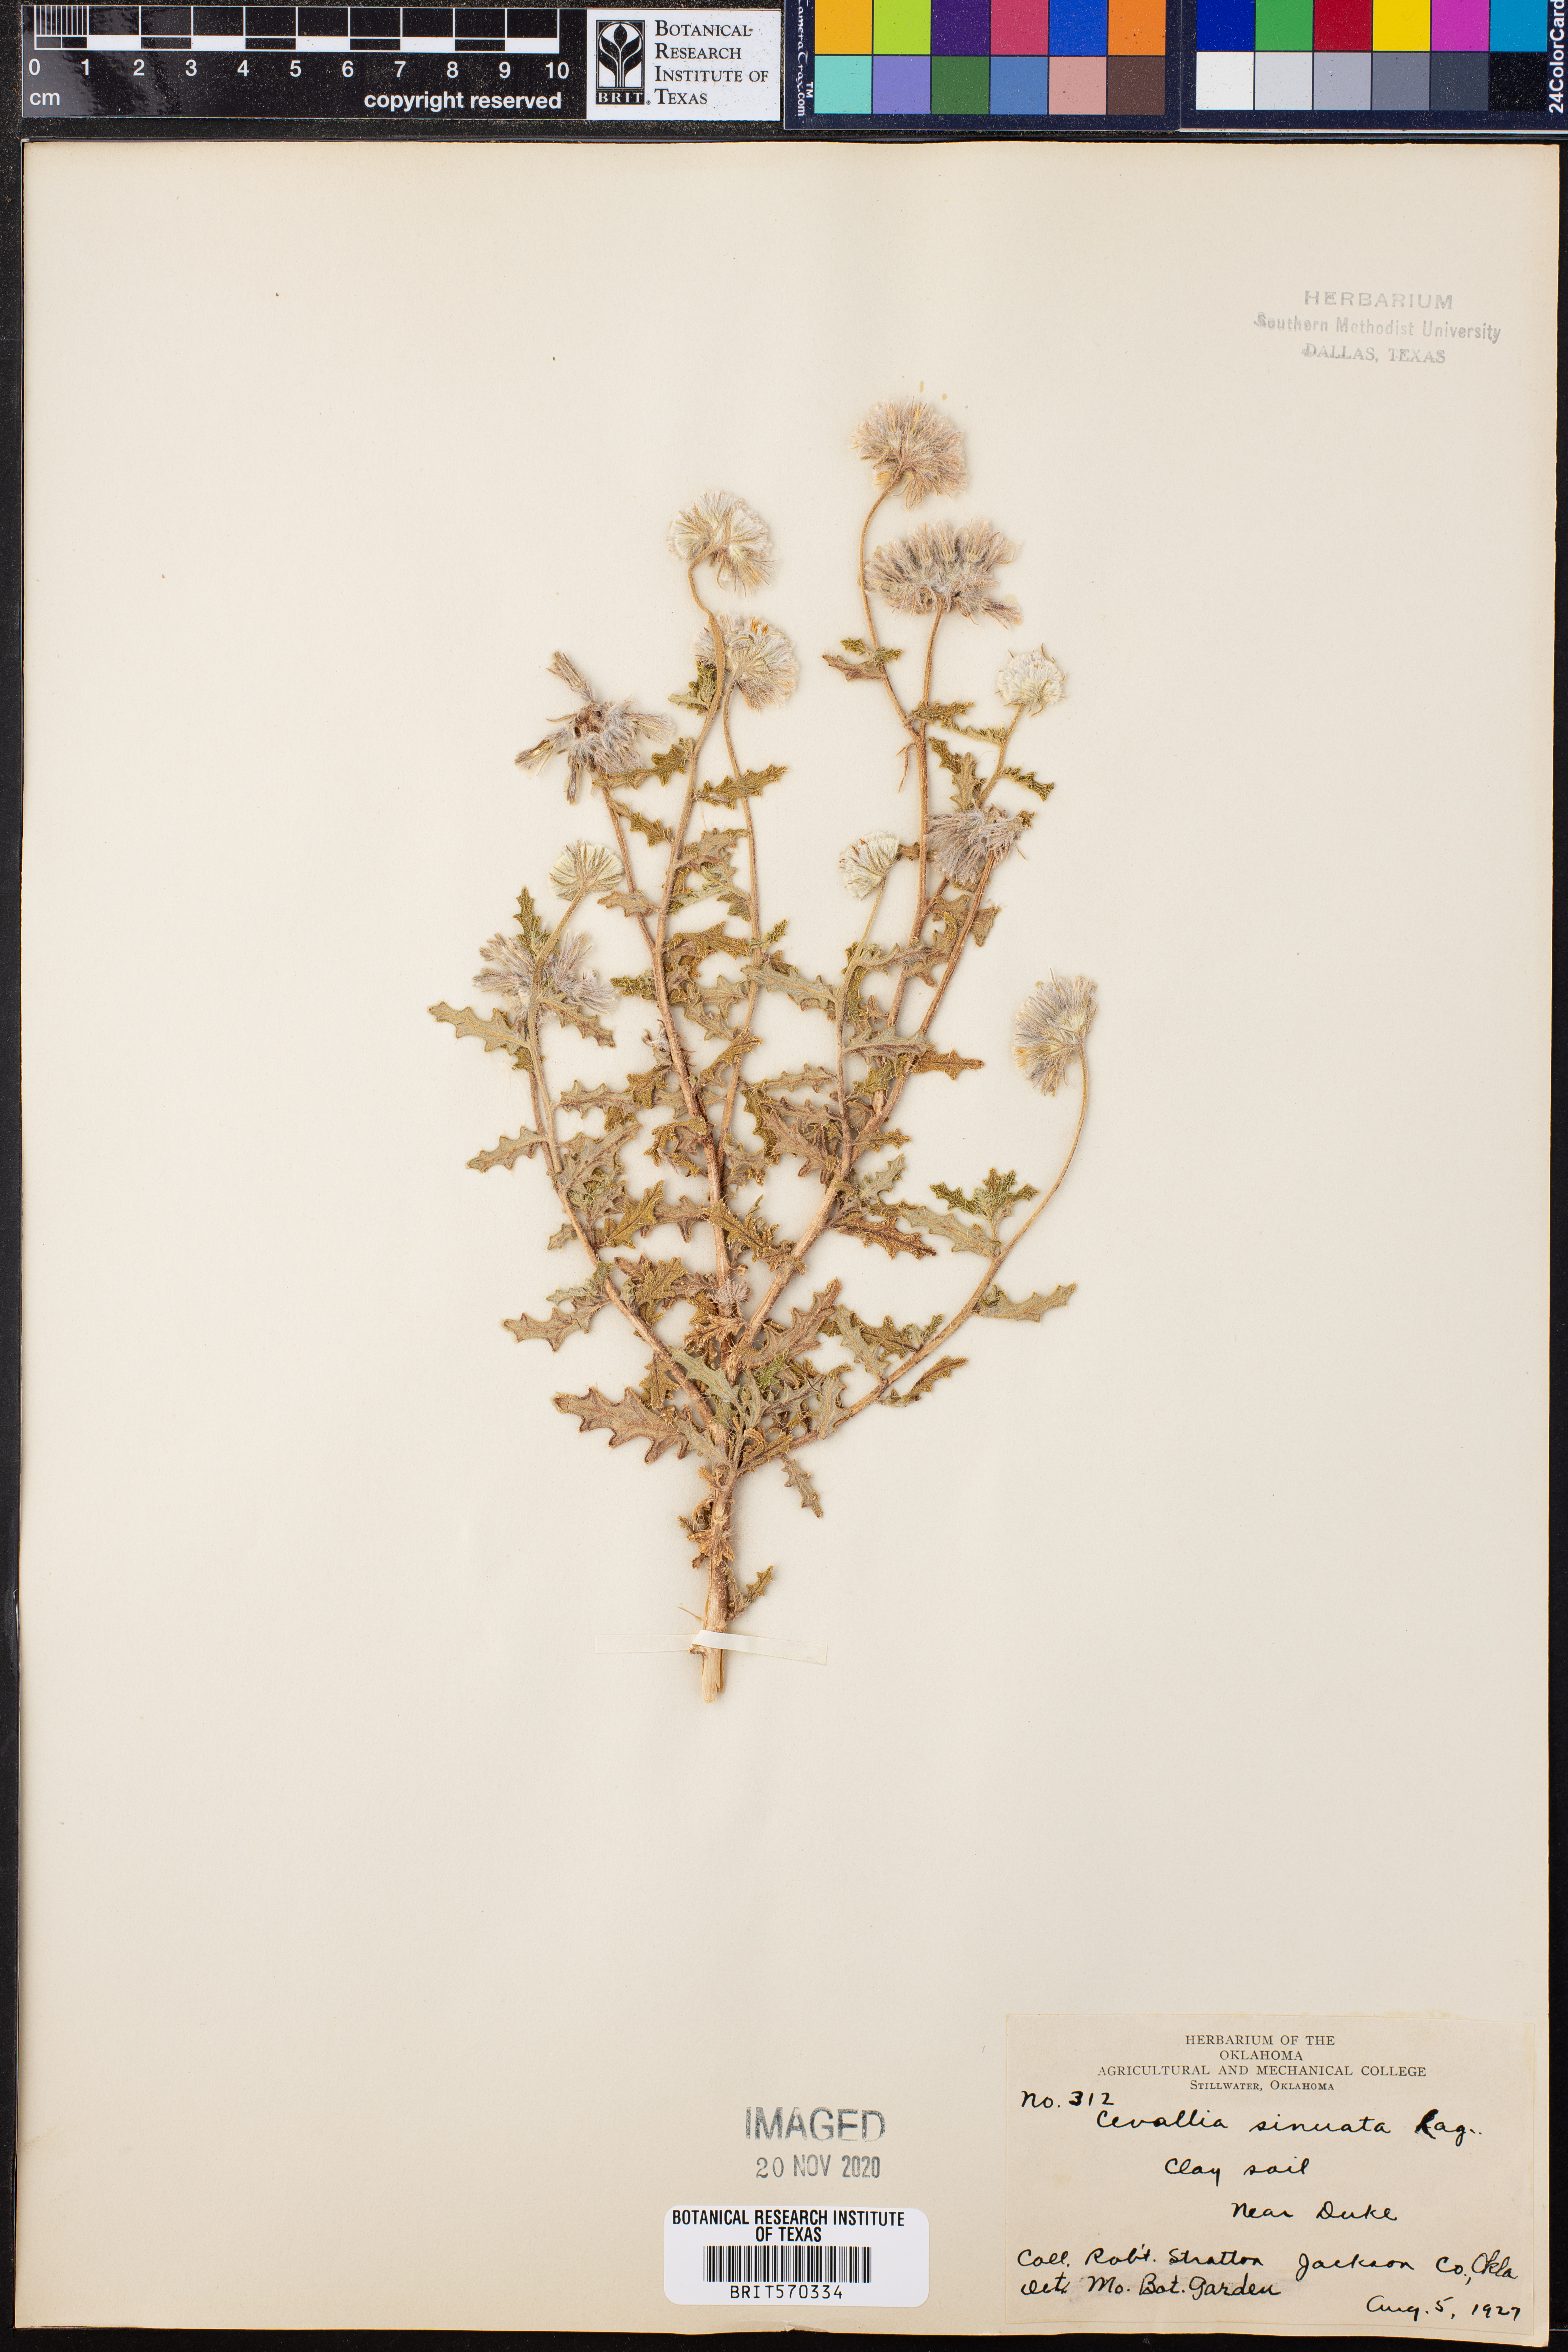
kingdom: Plantae
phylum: Tracheophyta
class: Magnoliopsida
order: Cornales
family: Loasaceae
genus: Cevallia
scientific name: Cevallia sinuata
